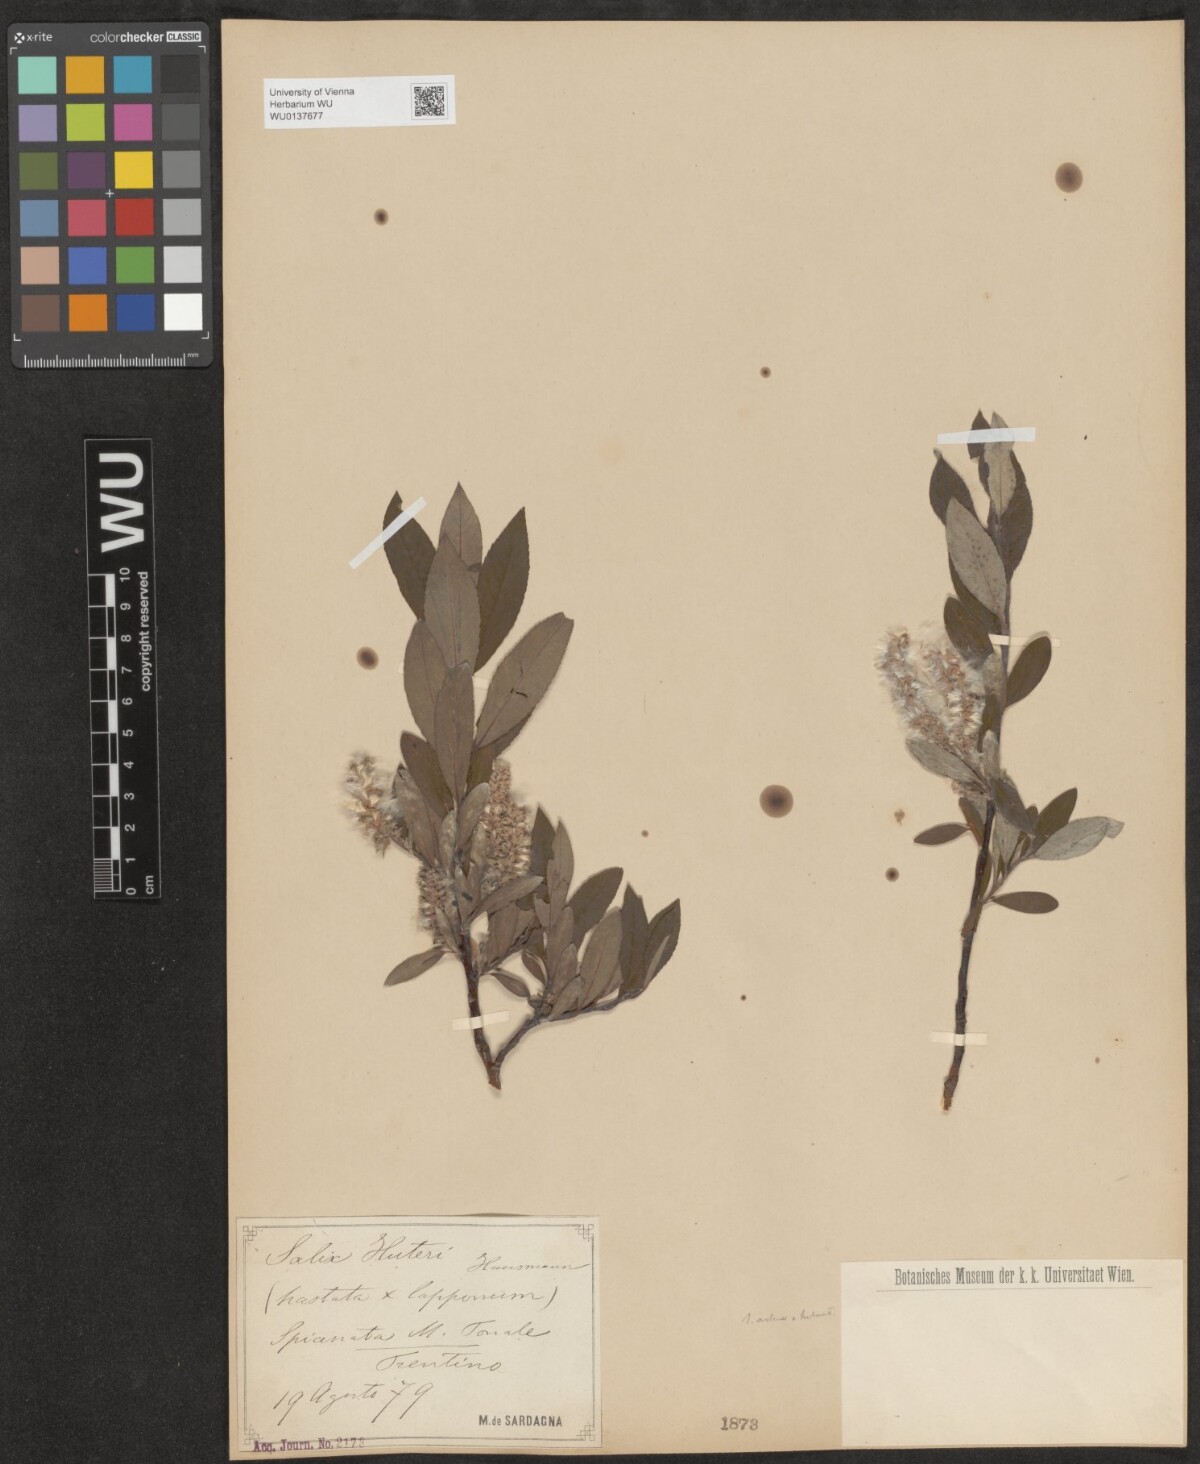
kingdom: Plantae
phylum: Tracheophyta
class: Magnoliopsida
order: Malpighiales
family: Salicaceae
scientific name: Salicaceae
